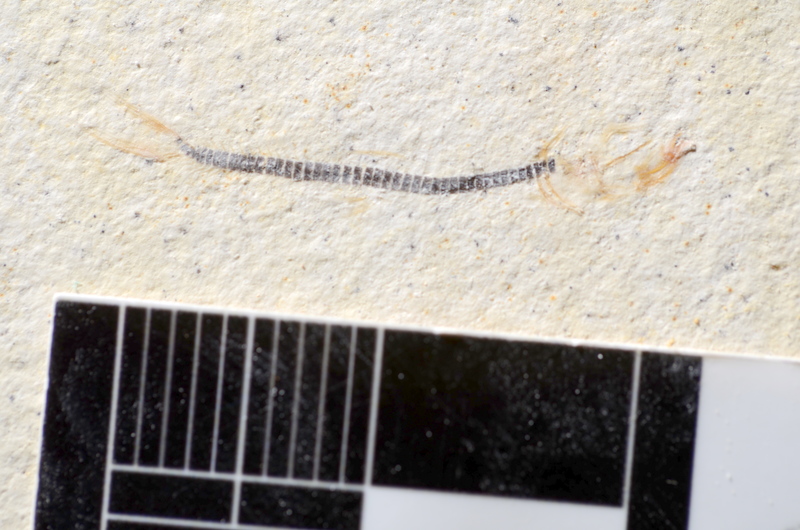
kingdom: Animalia
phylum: Chordata
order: Salmoniformes
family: Orthogonikleithridae
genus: Orthogonikleithrus
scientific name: Orthogonikleithrus hoelli
